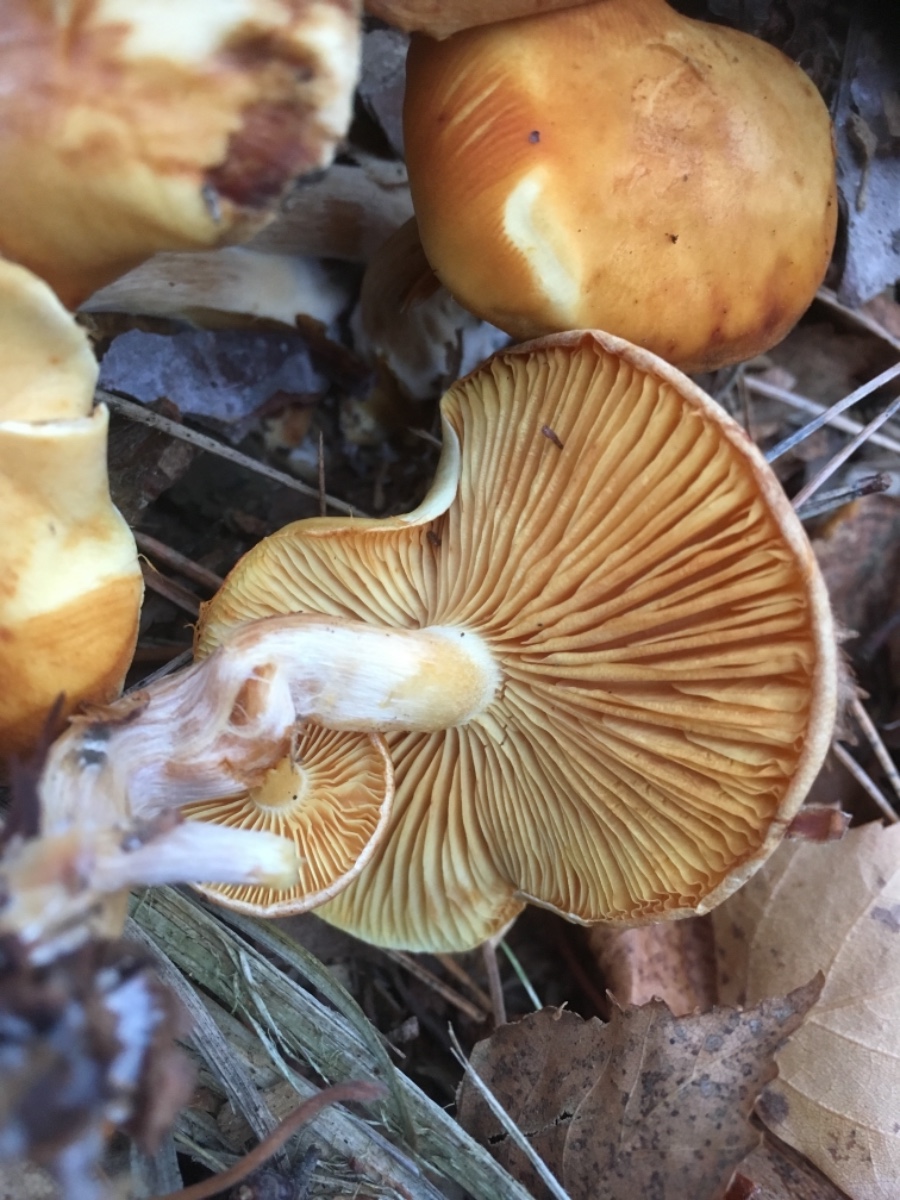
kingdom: Fungi
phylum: Basidiomycota
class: Agaricomycetes
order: Agaricales
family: Hymenogastraceae
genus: Gymnopilus
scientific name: Gymnopilus penetrans
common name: plettet flammehat
